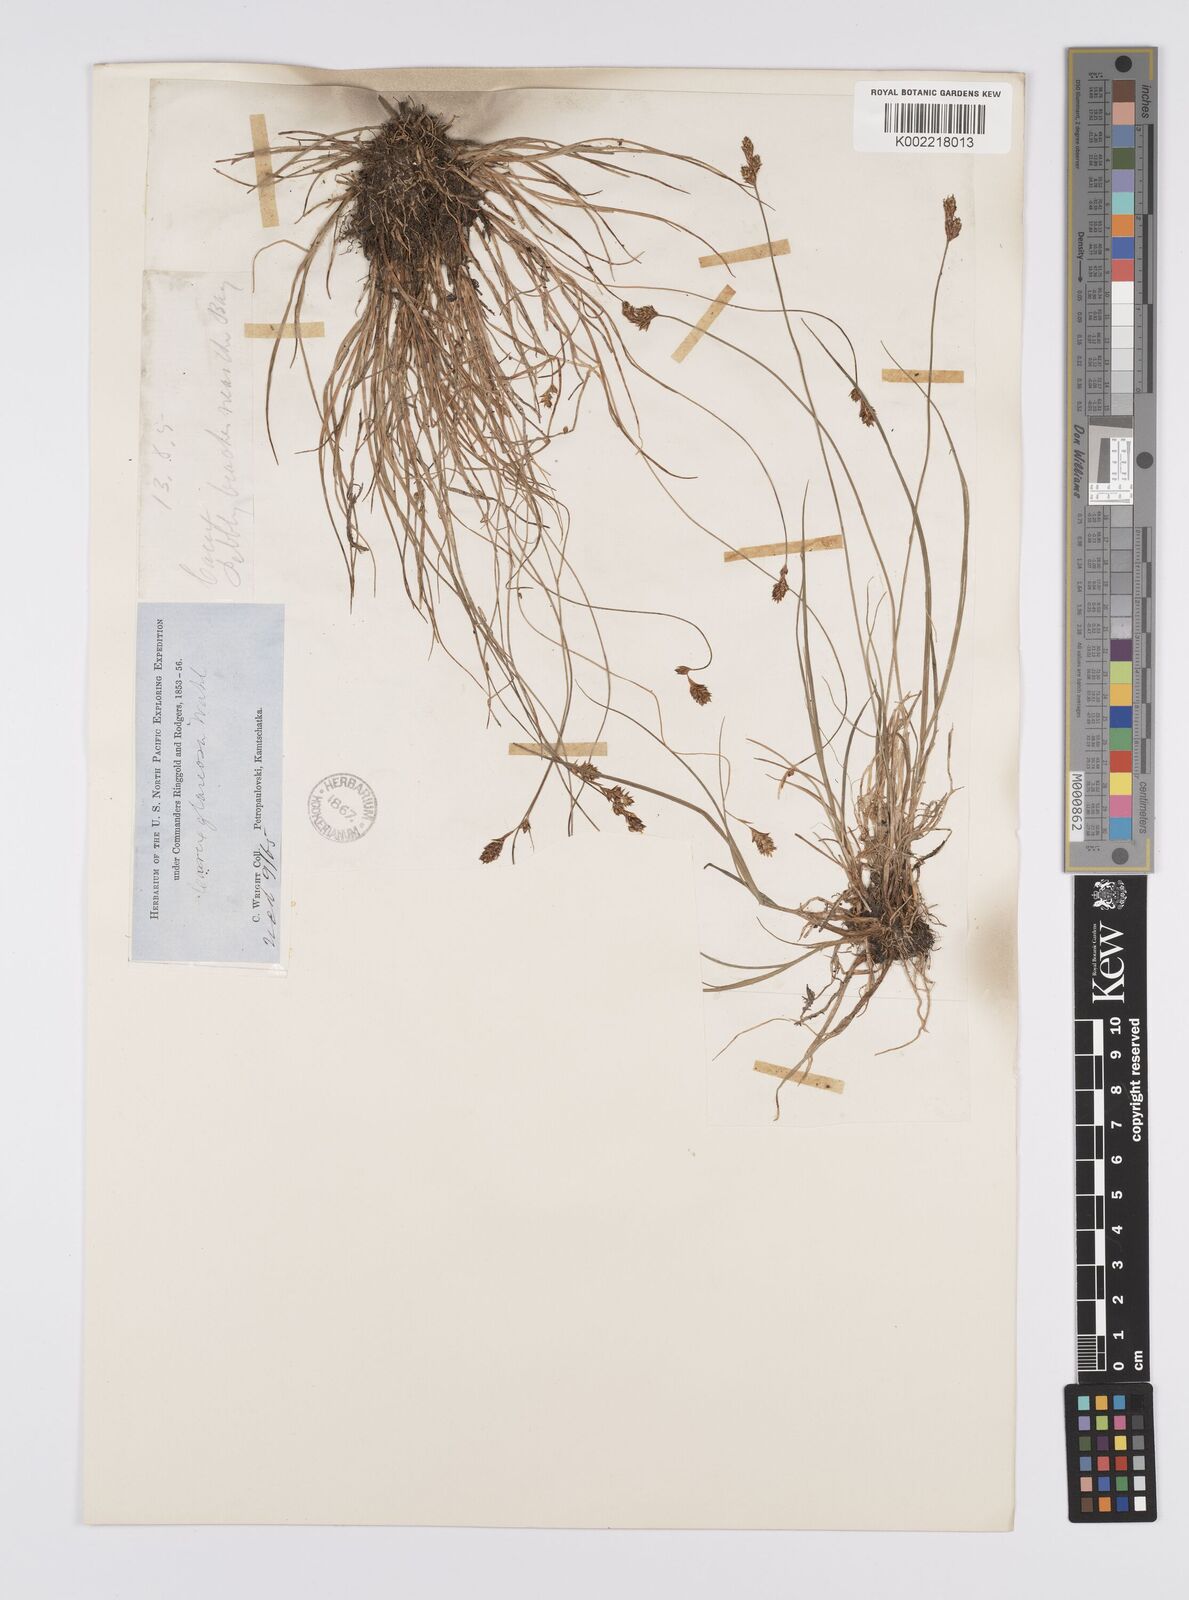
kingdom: Plantae
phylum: Tracheophyta
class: Liliopsida
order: Poales
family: Cyperaceae
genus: Carex
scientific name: Carex glareosa
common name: Clustered sedge
